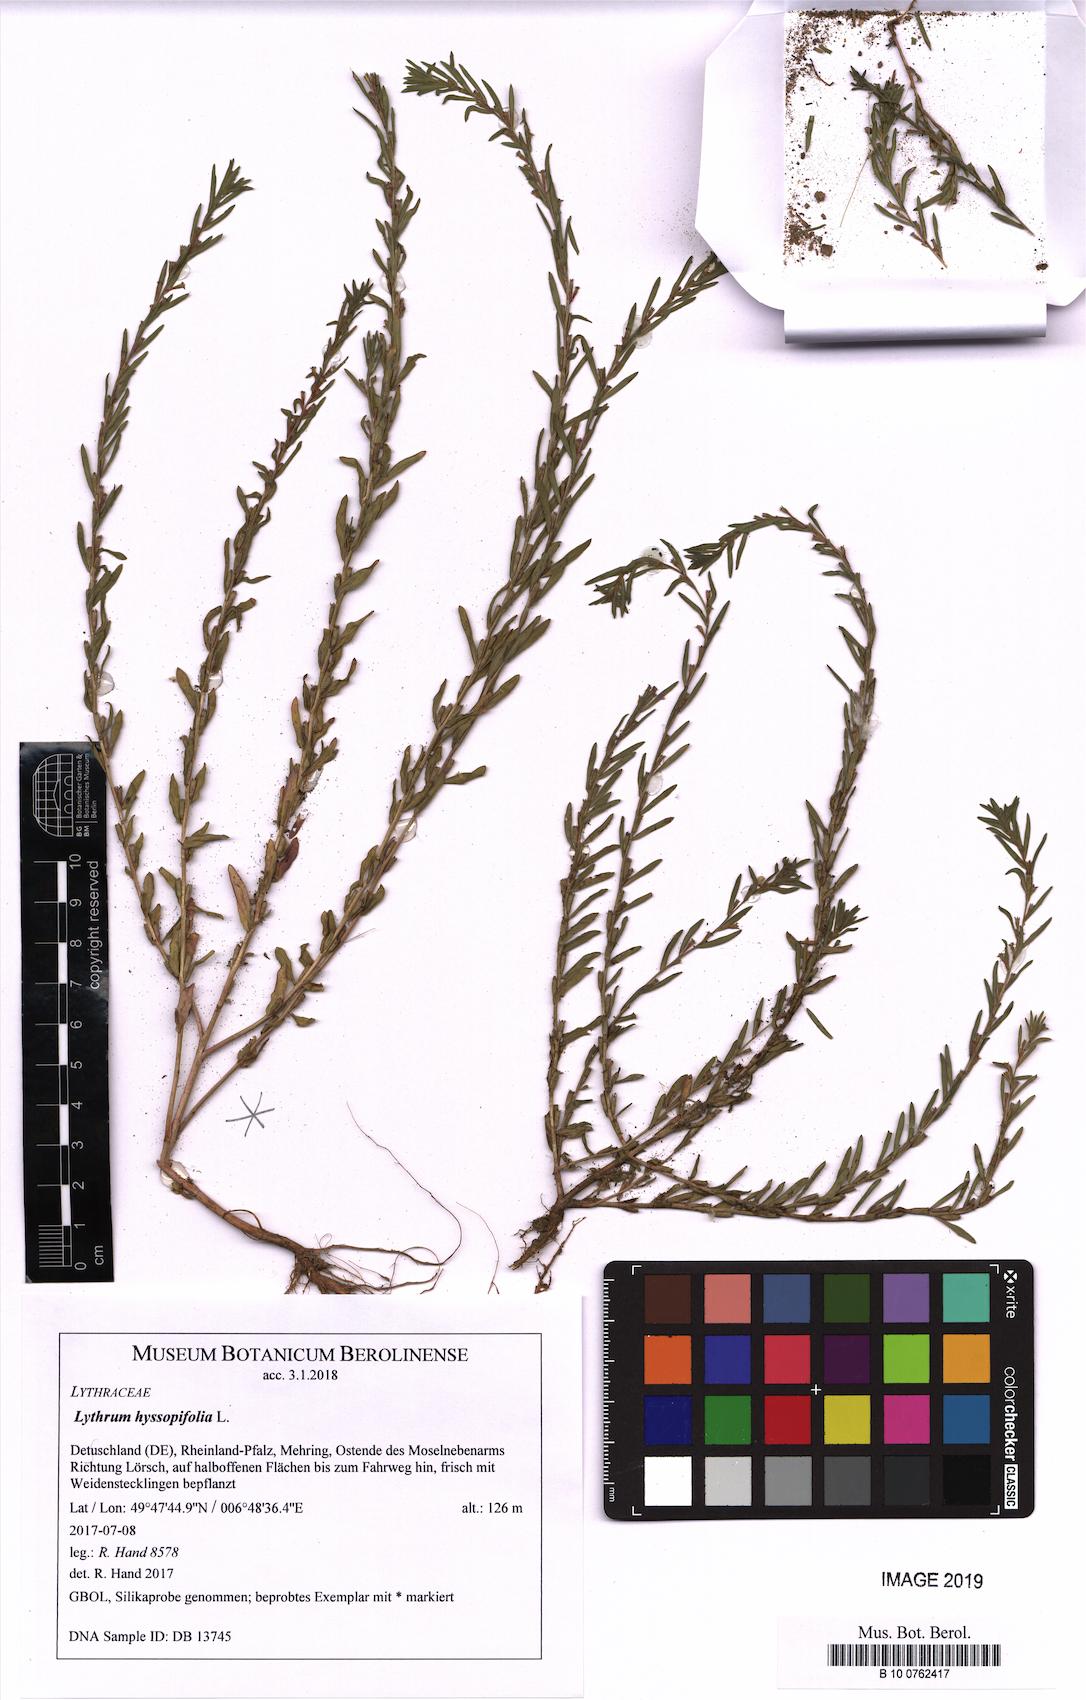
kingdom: Plantae
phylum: Tracheophyta
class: Magnoliopsida
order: Myrtales
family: Lythraceae
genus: Lythrum
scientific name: Lythrum hyssopifolia
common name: Grass-poly
